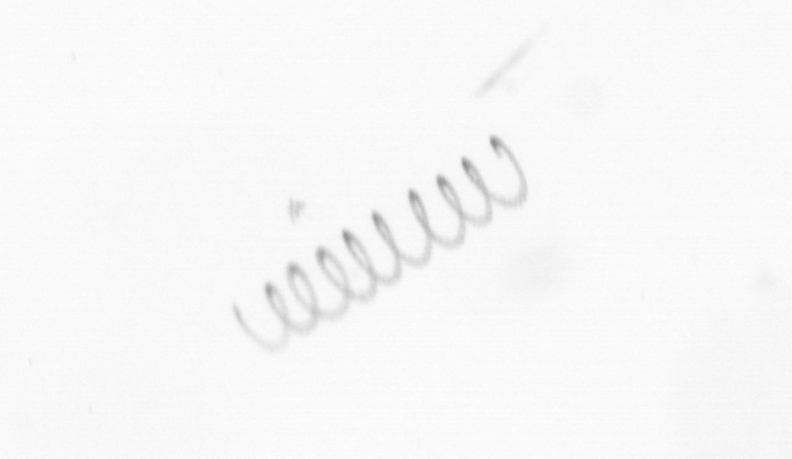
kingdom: Chromista
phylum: Ochrophyta
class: Bacillariophyceae
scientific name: Bacillariophyceae
